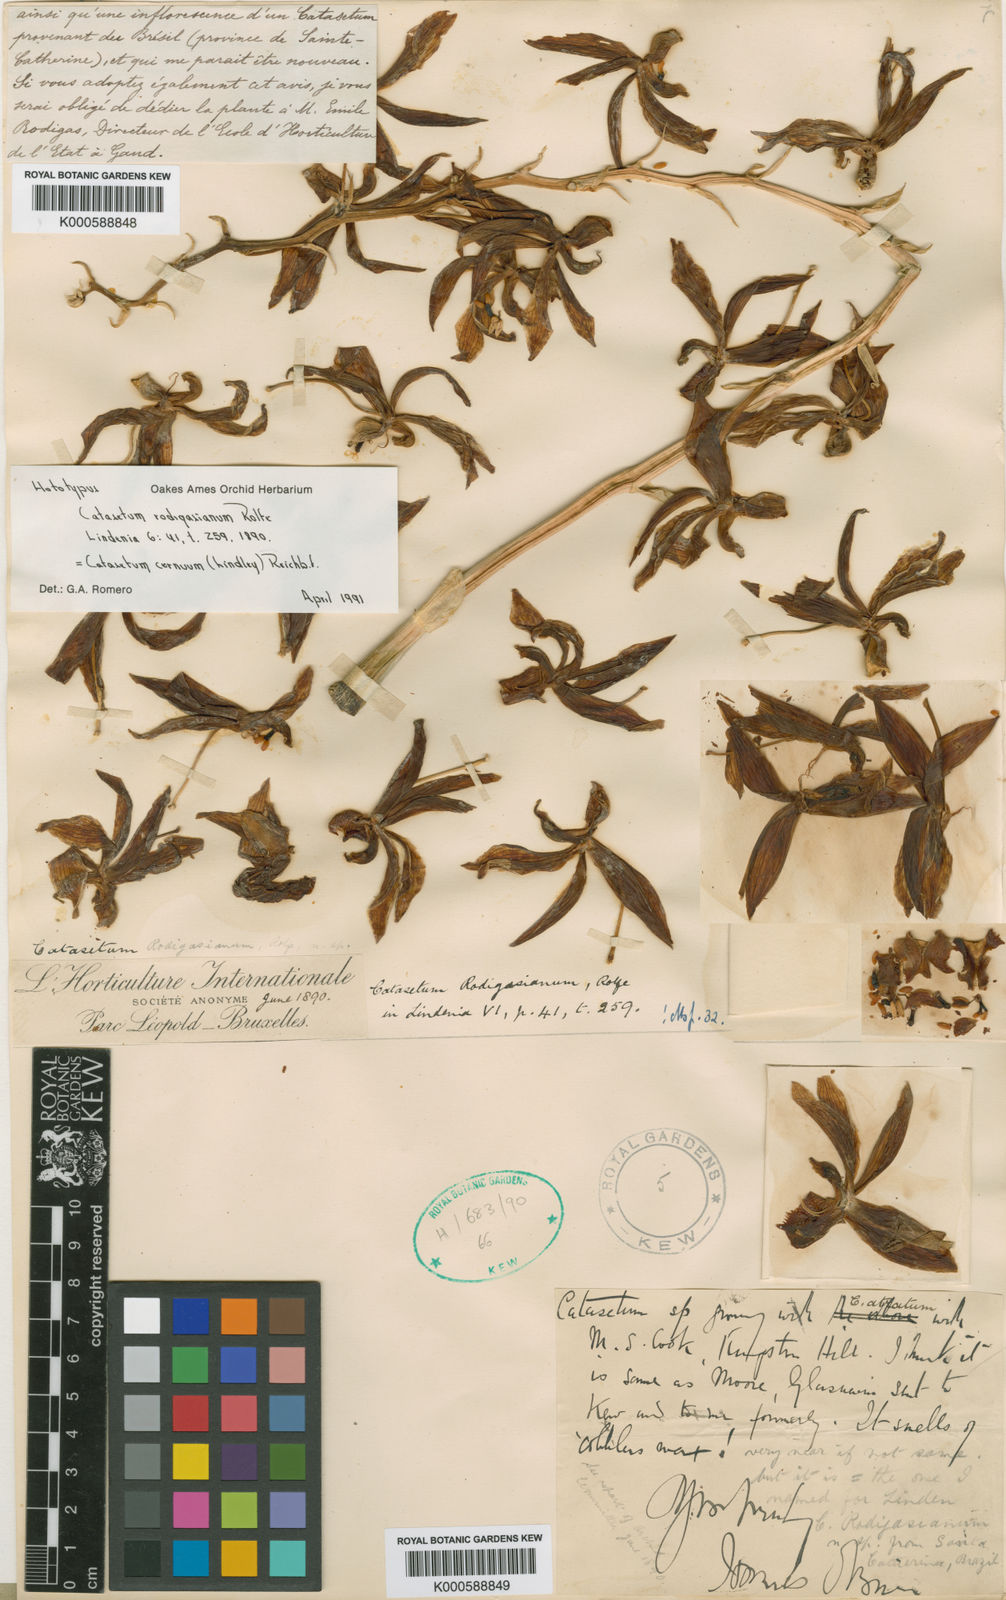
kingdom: Plantae
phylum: Tracheophyta
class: Liliopsida
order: Asparagales
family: Orchidaceae
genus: Catasetum
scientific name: Catasetum rodigasianum
